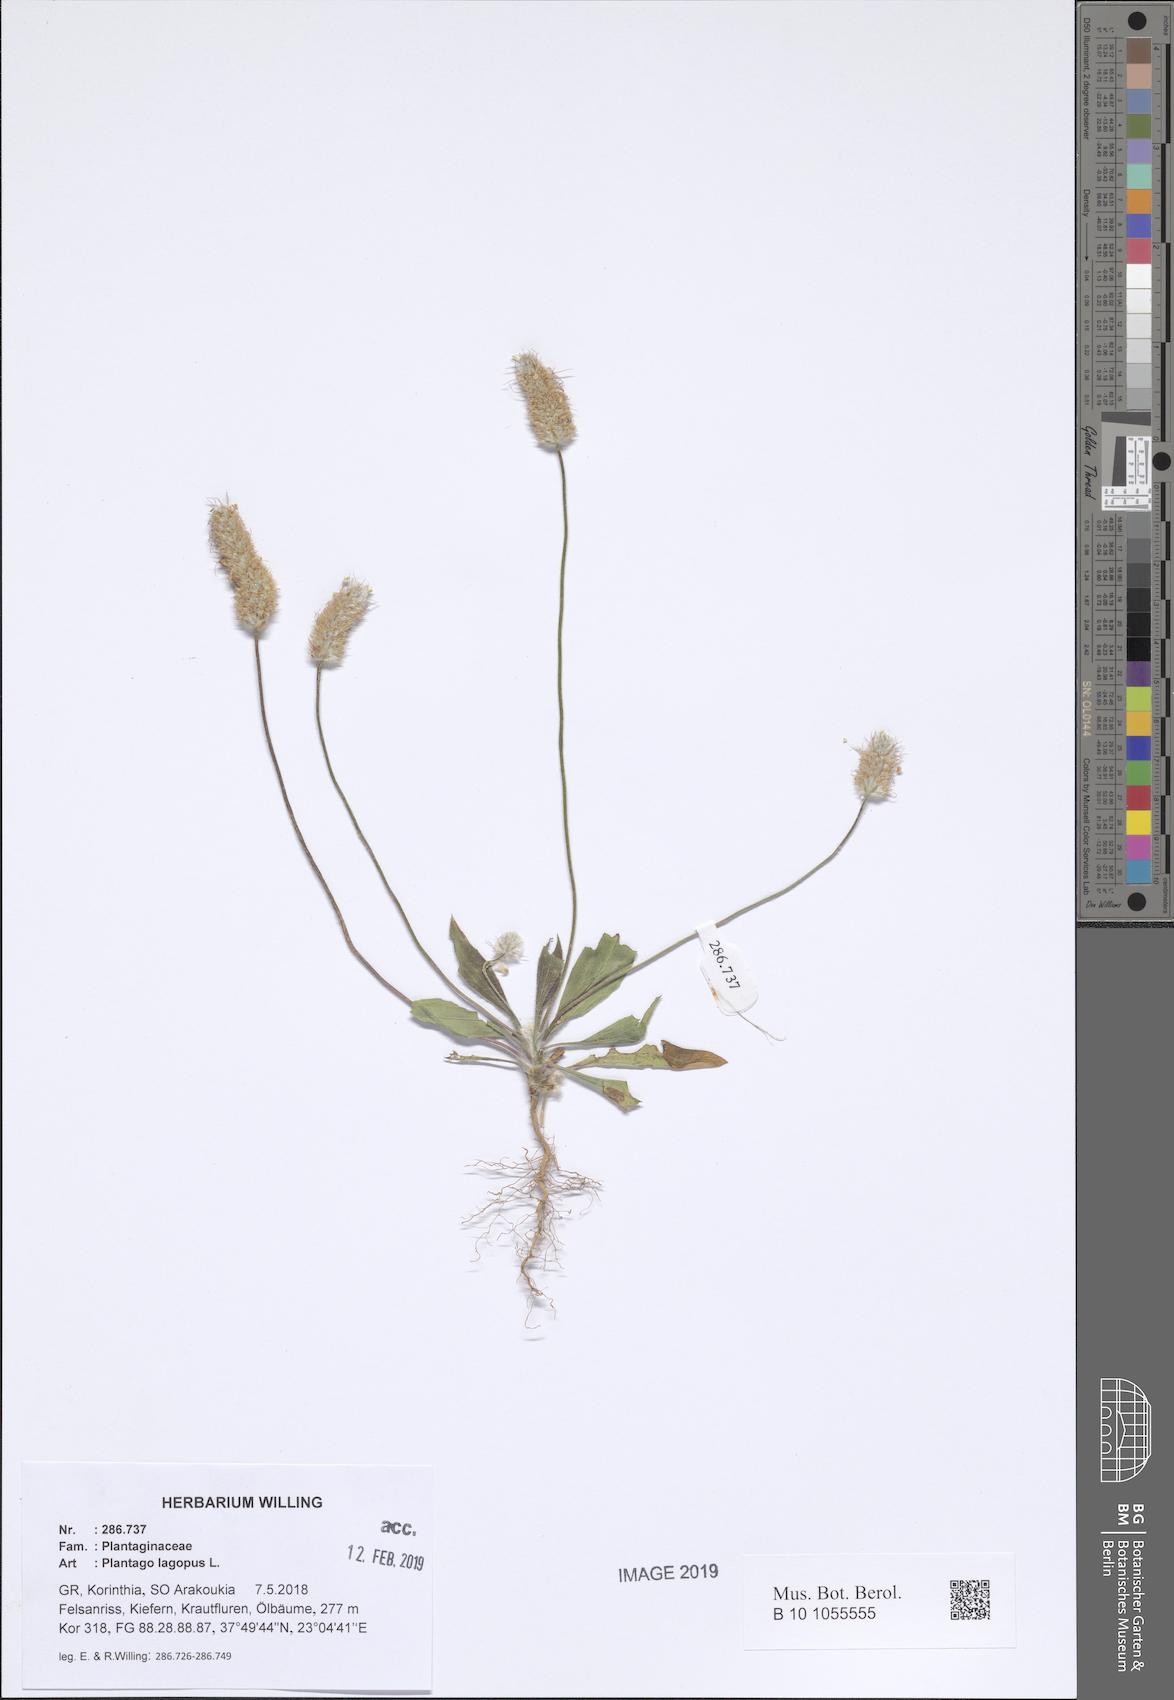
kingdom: Plantae
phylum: Tracheophyta
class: Magnoliopsida
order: Lamiales
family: Plantaginaceae
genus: Plantago
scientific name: Plantago lagopus
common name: Hare-foot plantain
